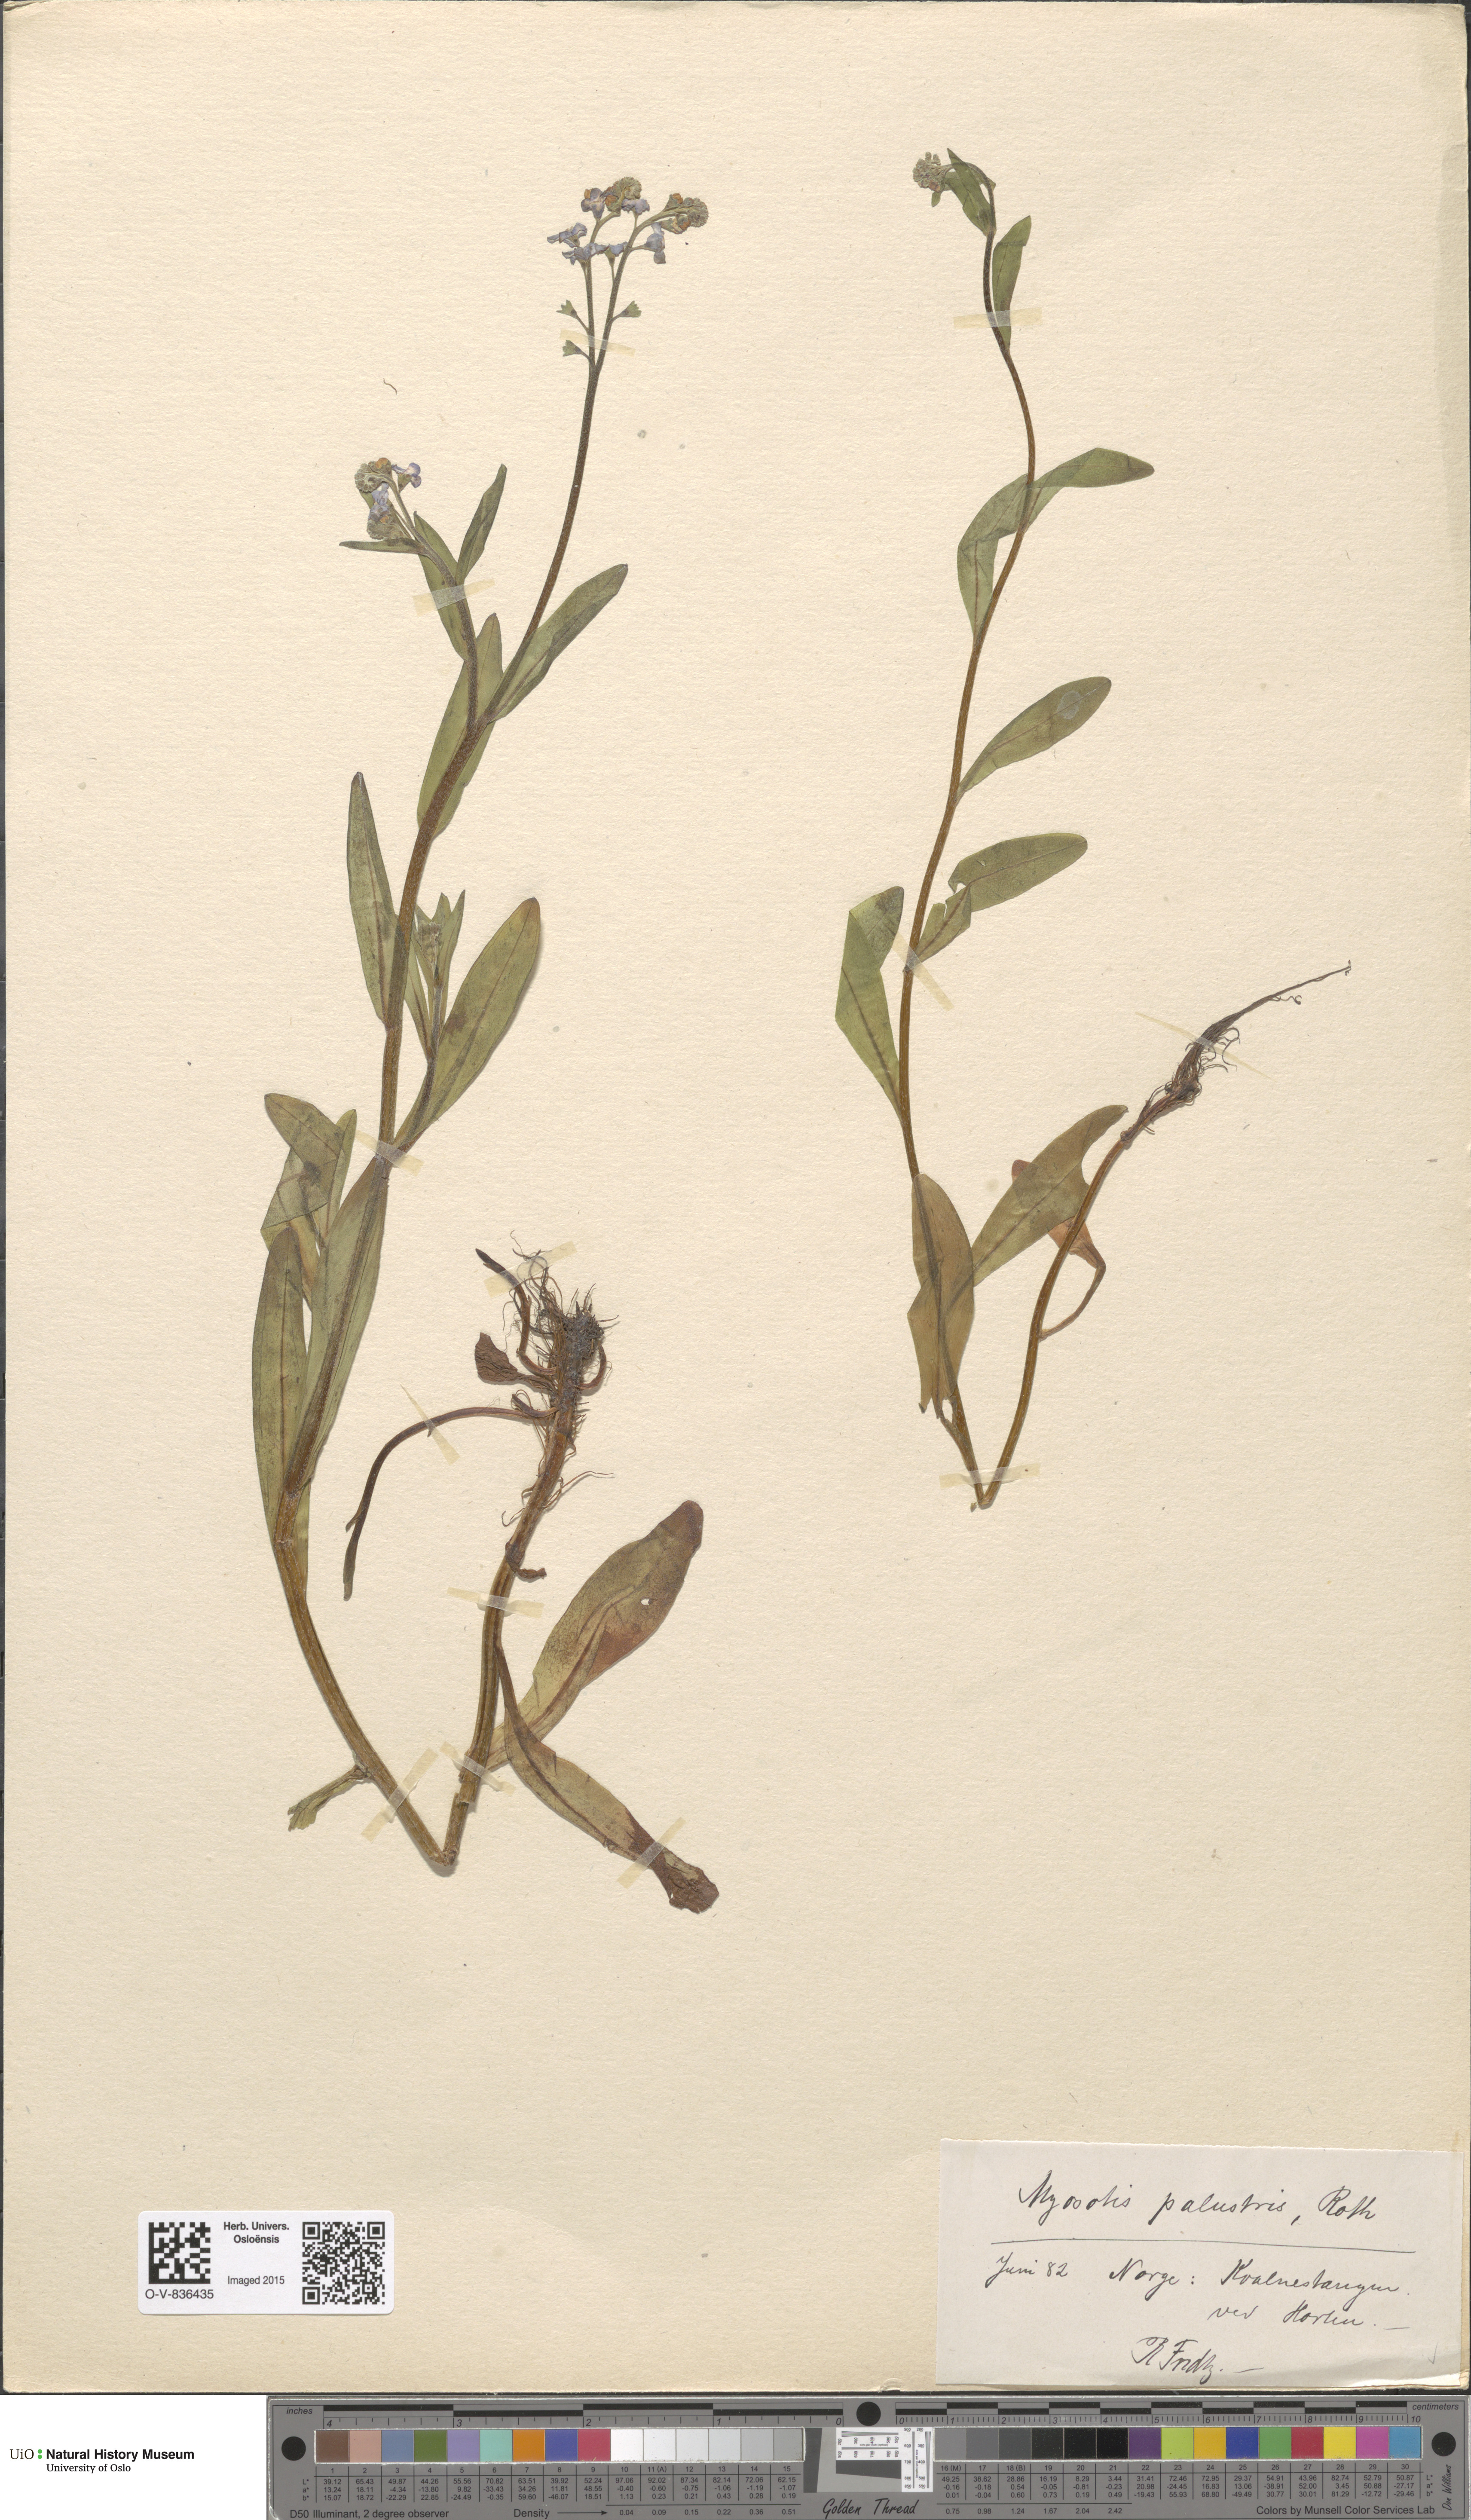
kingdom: Plantae
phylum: Tracheophyta
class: Magnoliopsida
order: Boraginales
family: Boraginaceae
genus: Myosotis
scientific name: Myosotis scorpioides
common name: Water forget-me-not
